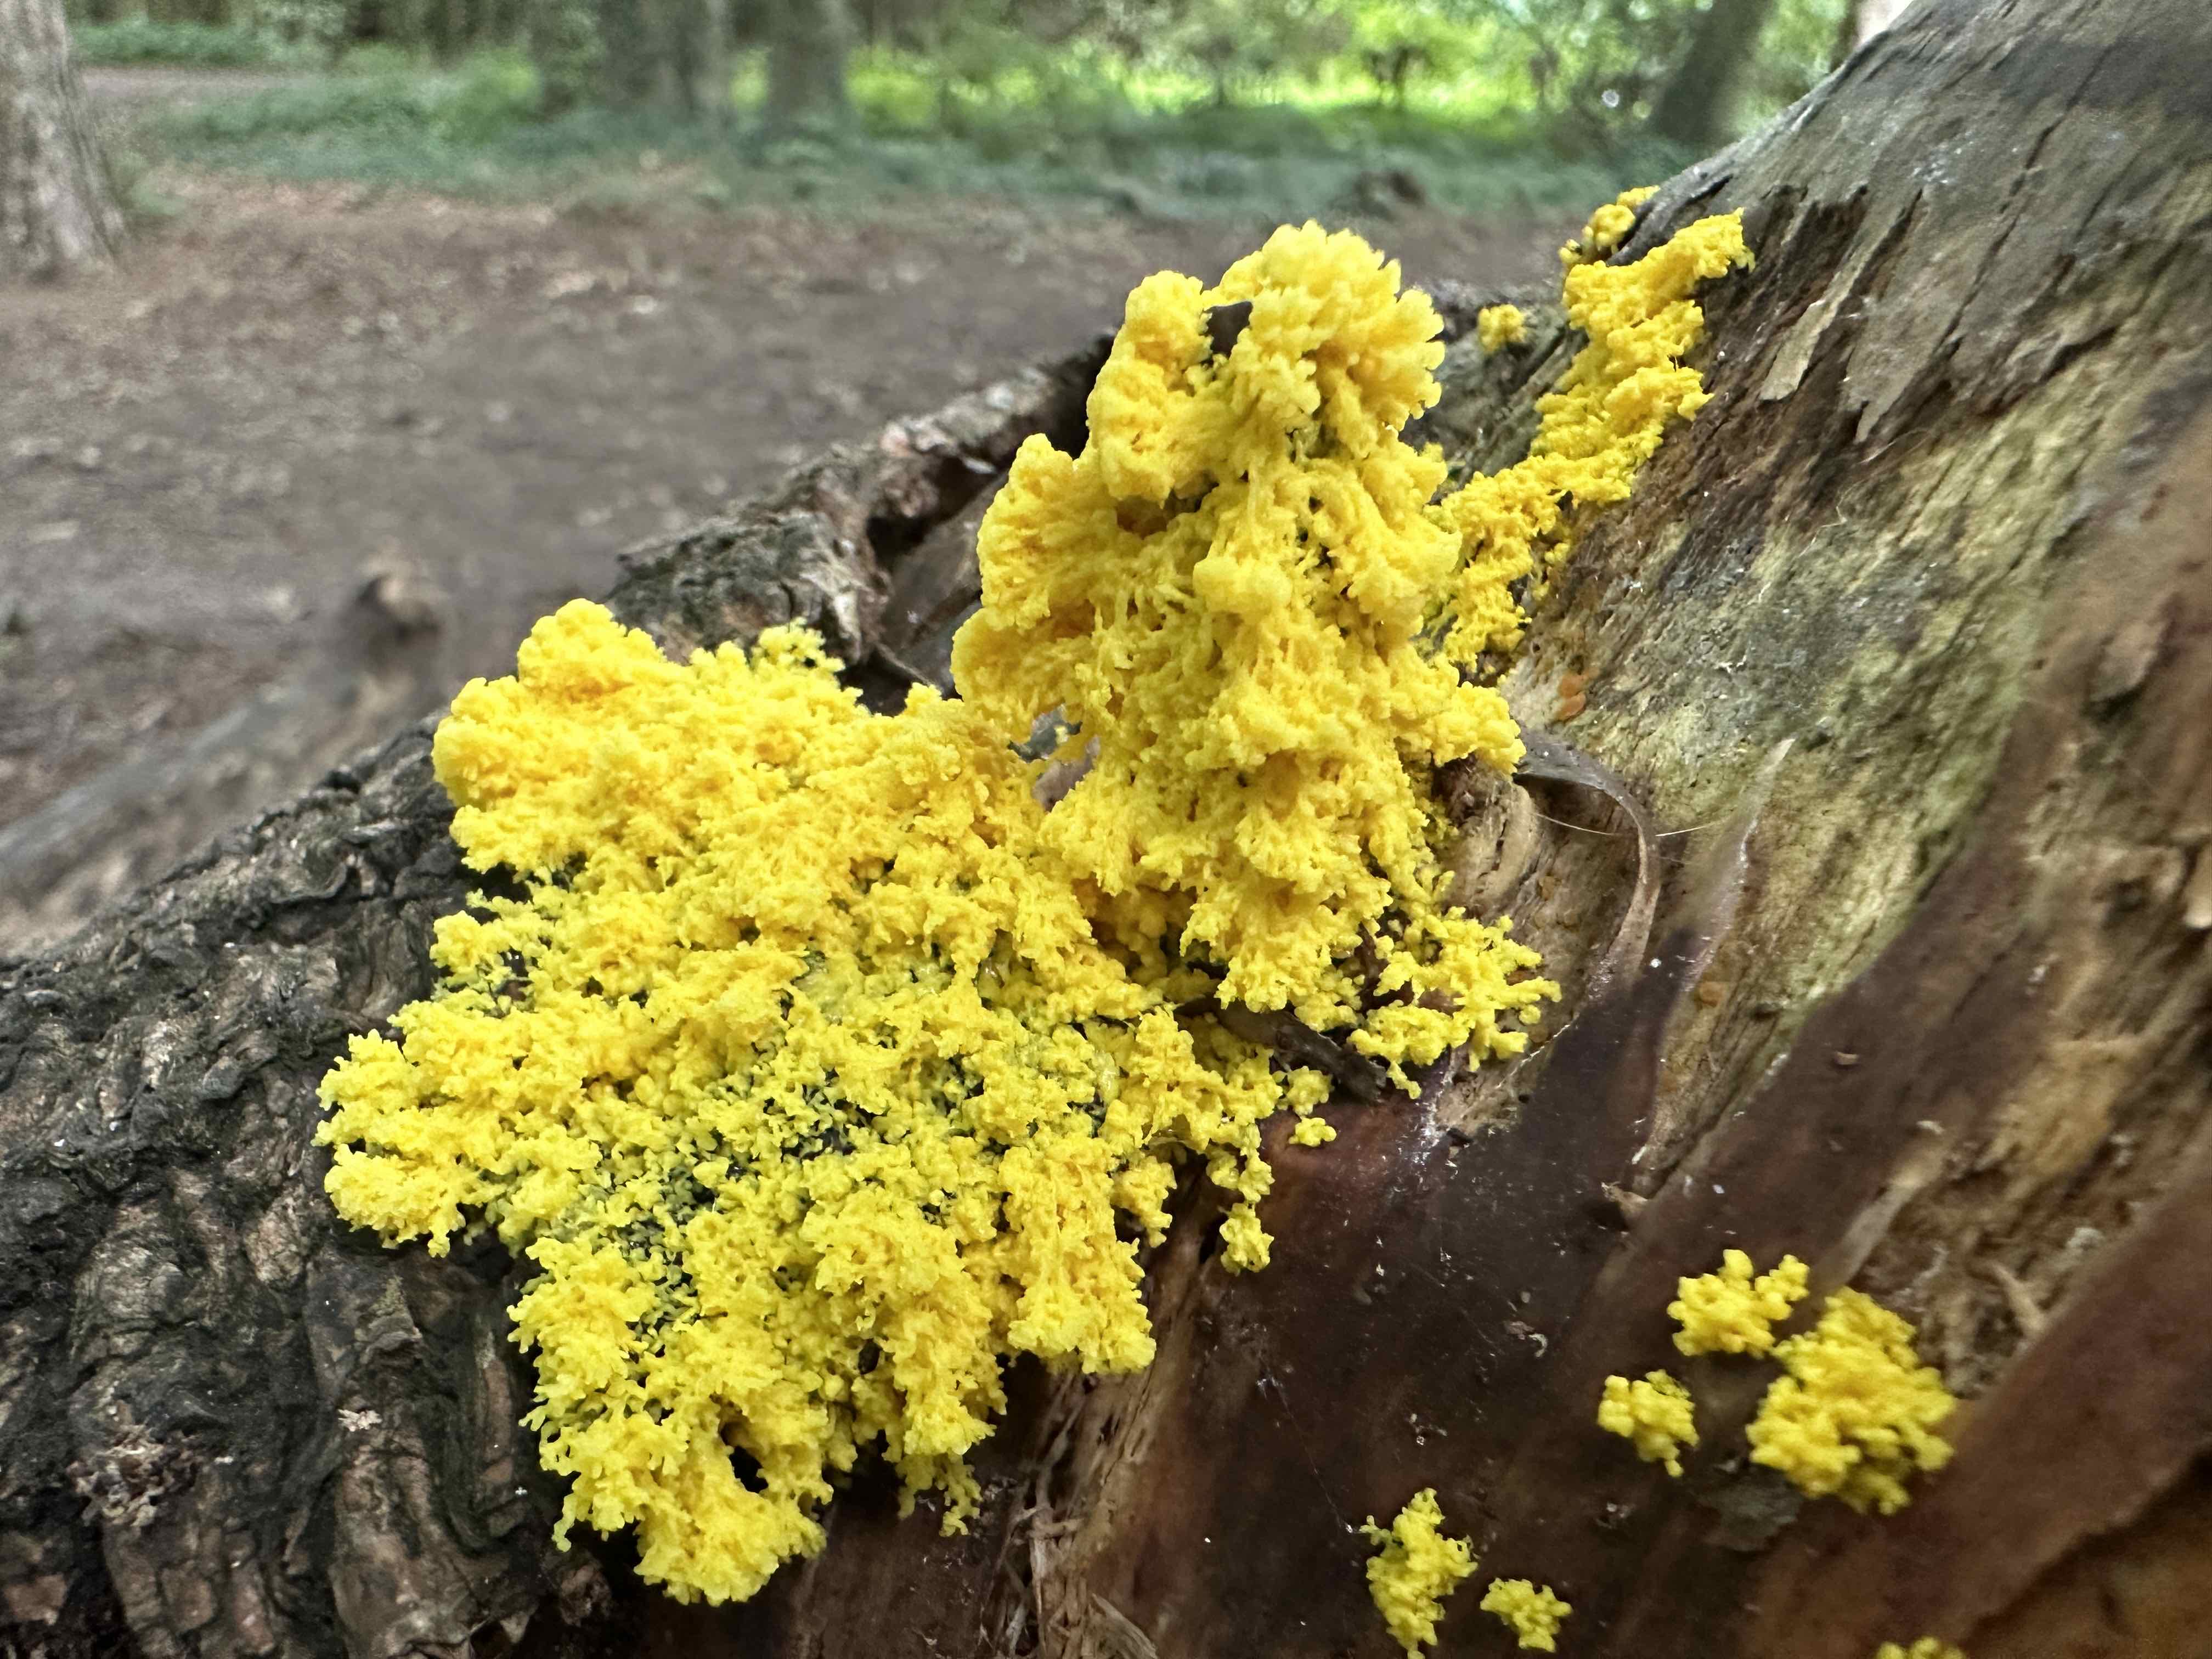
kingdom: Protozoa
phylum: Mycetozoa
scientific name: Mycetozoa
